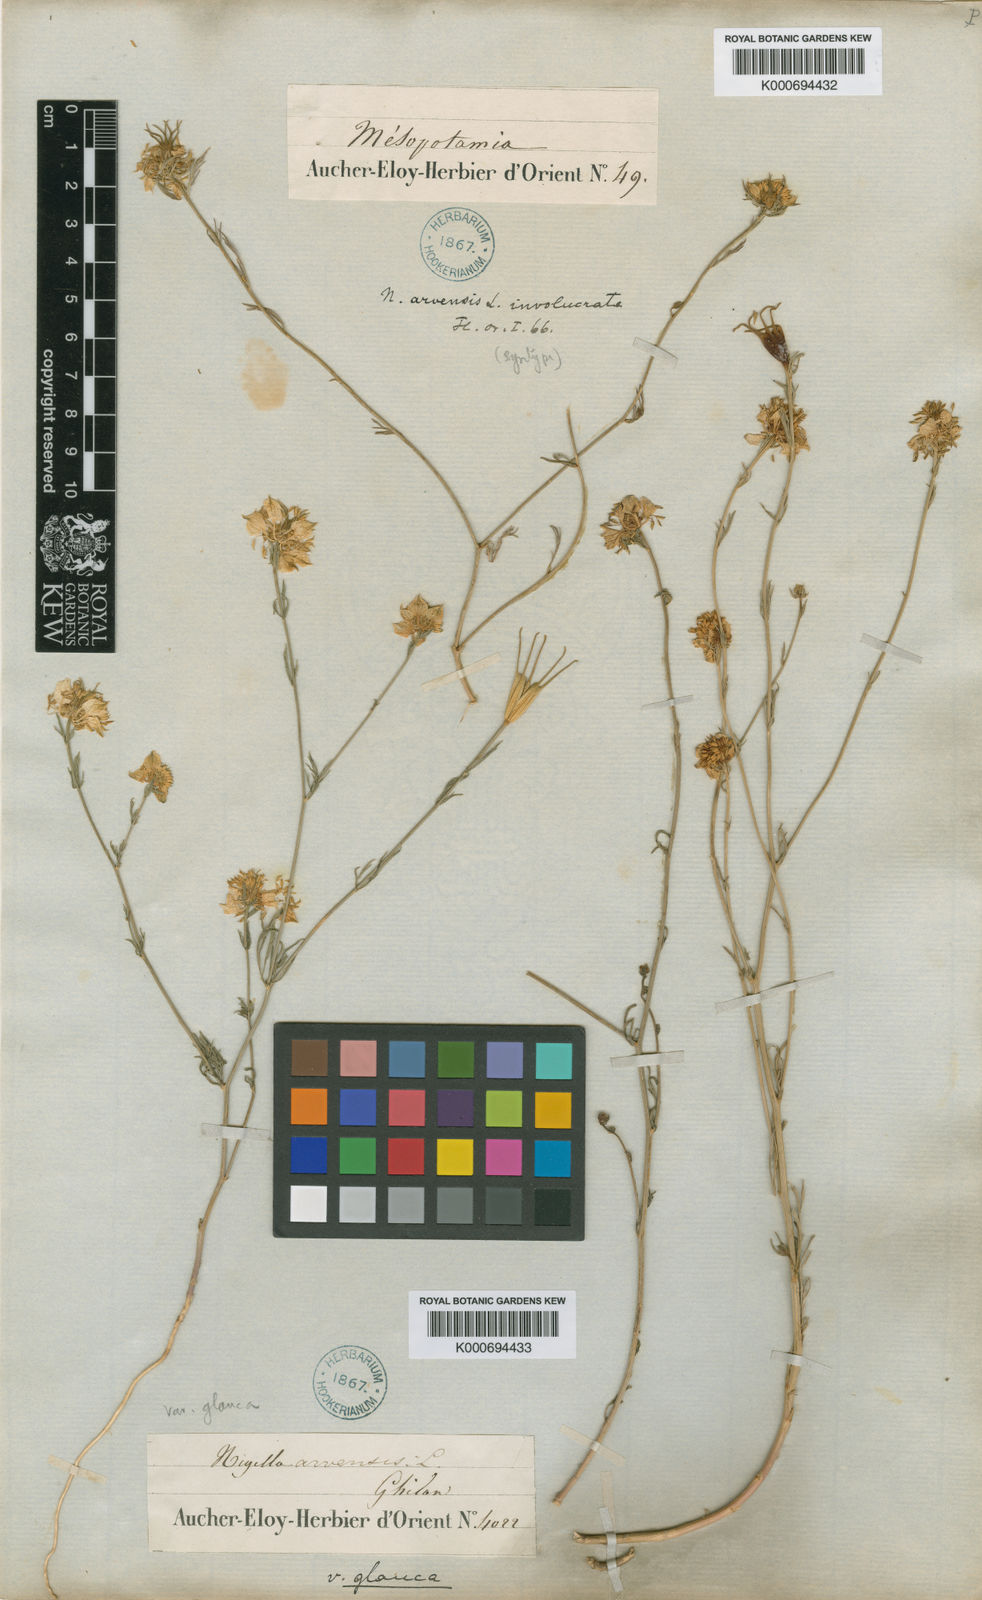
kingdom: Plantae
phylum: Tracheophyta
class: Magnoliopsida
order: Ranunculales
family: Ranunculaceae
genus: Nigella
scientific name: Nigella arvensis
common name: Wild fennel-flower
